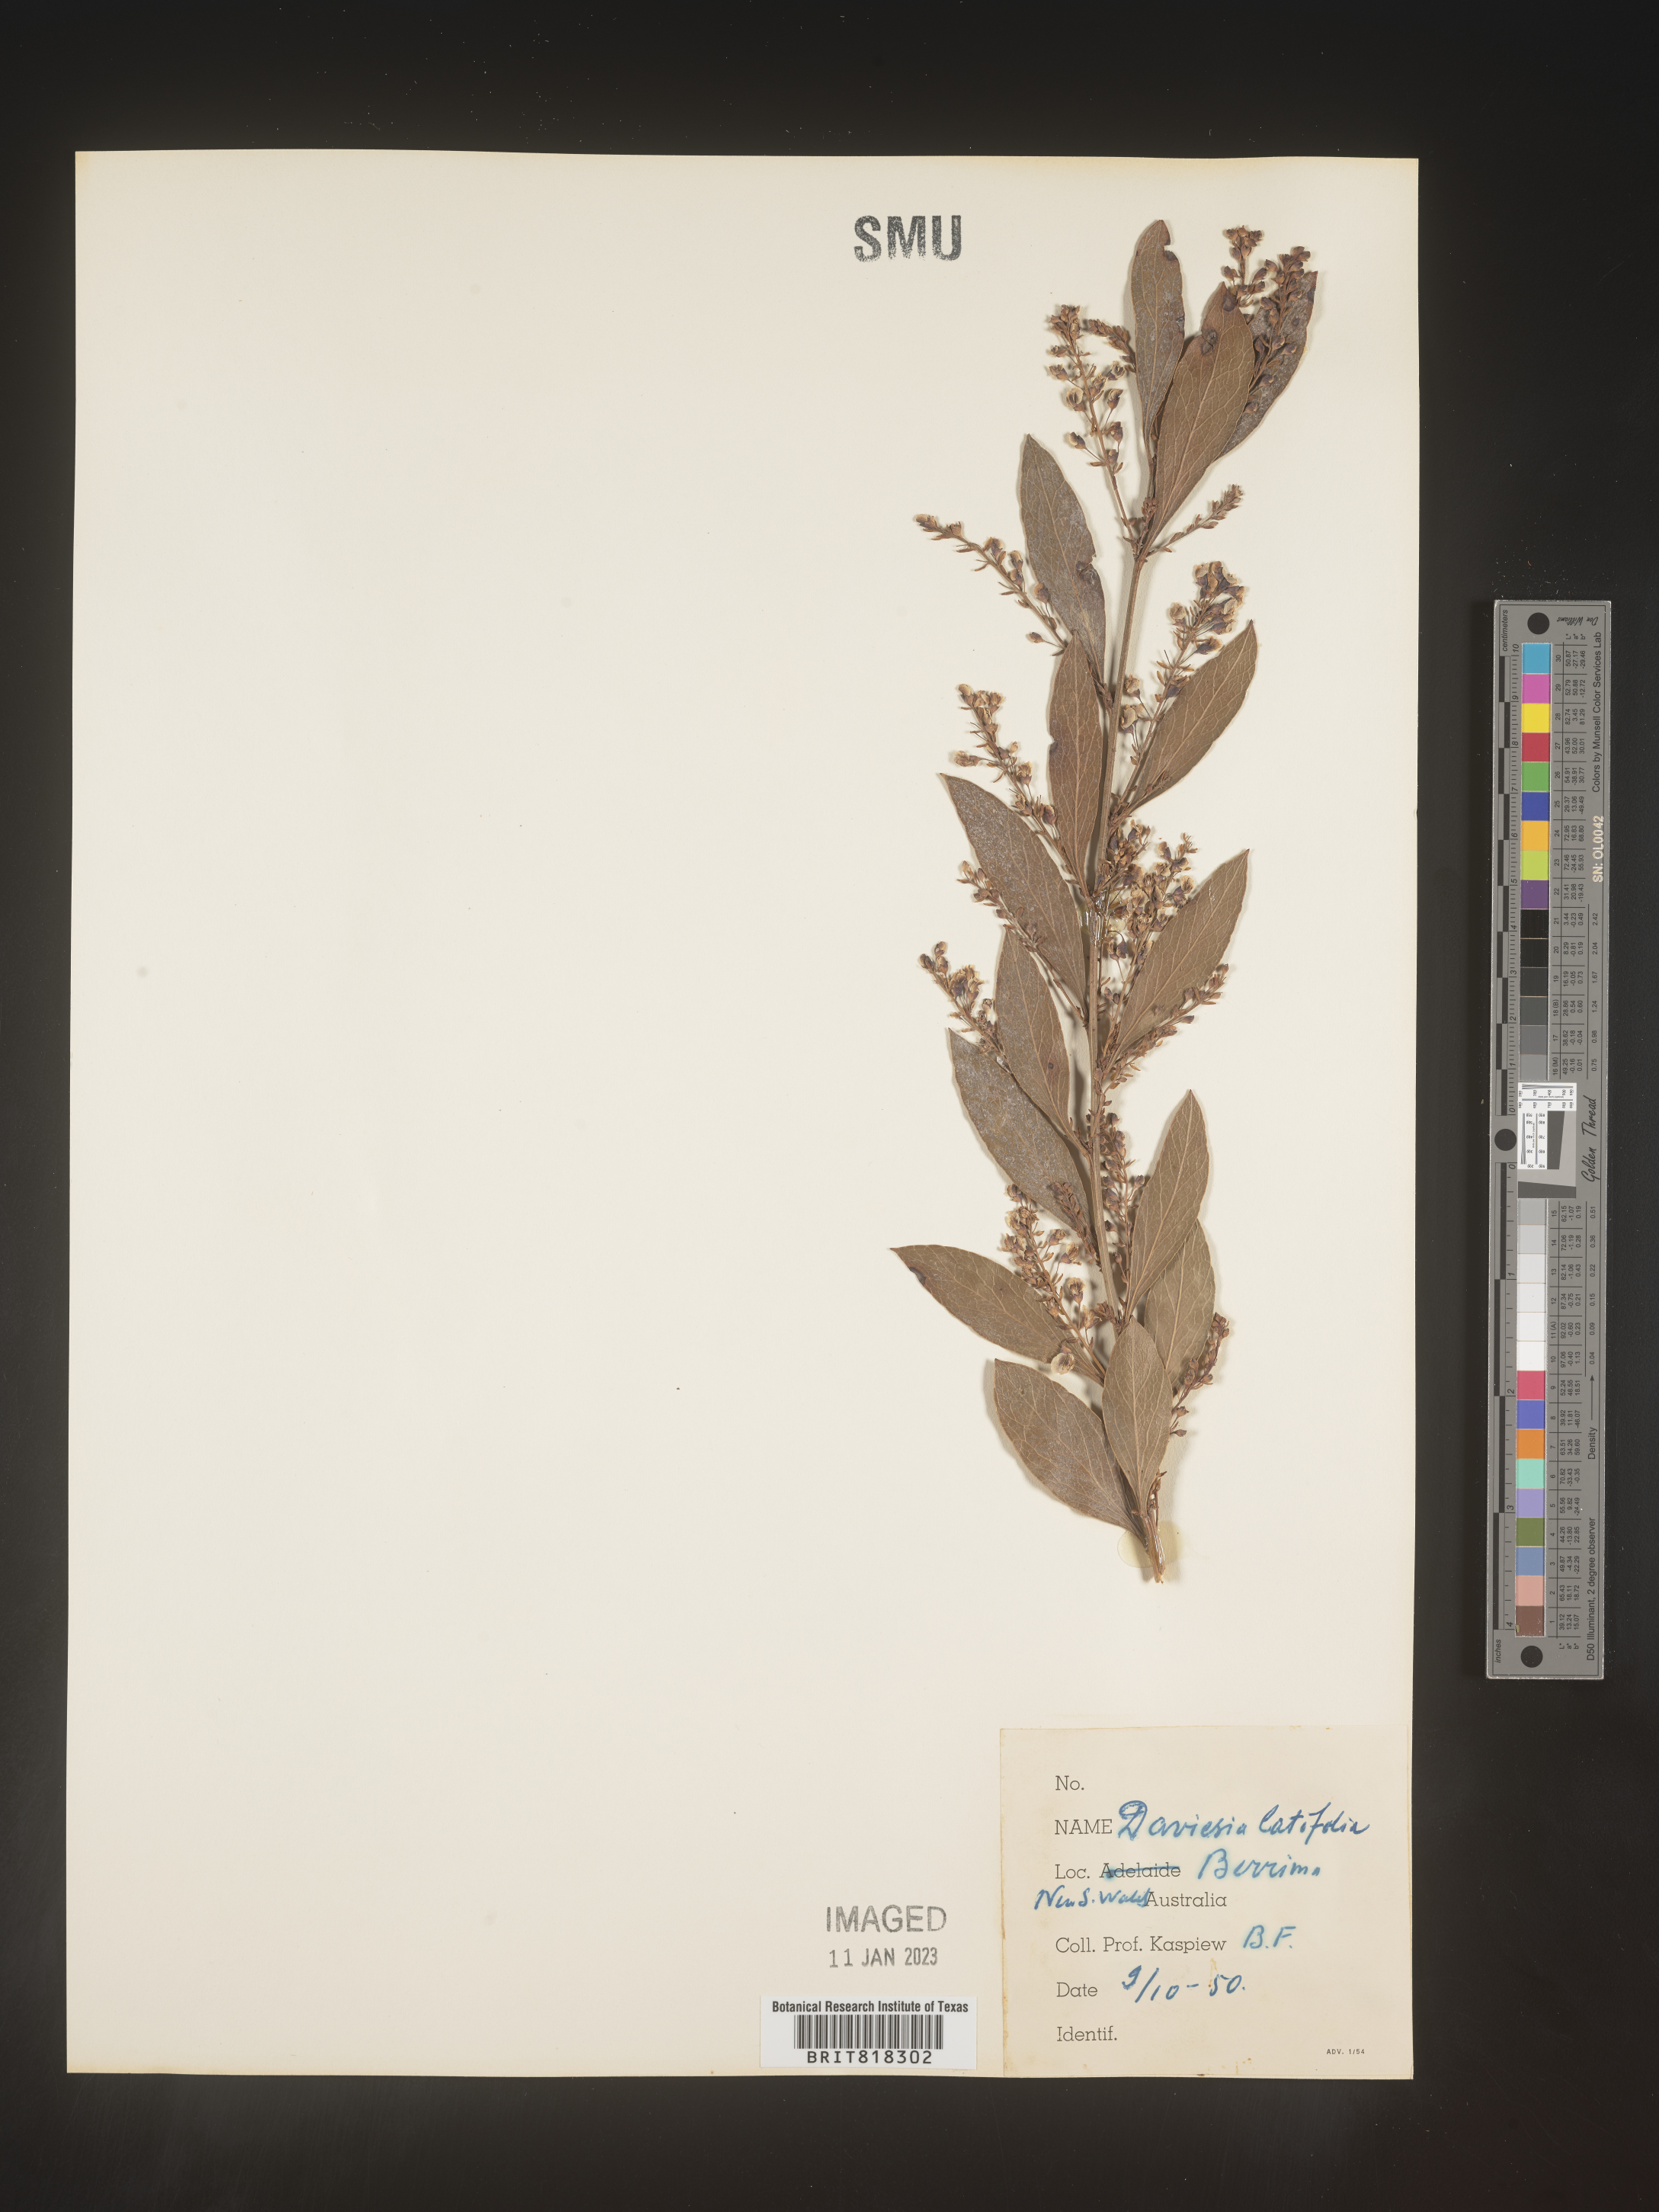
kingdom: Plantae
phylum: Tracheophyta
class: Magnoliopsida
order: Fabales
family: Fabaceae
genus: Daviesia
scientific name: Daviesia
